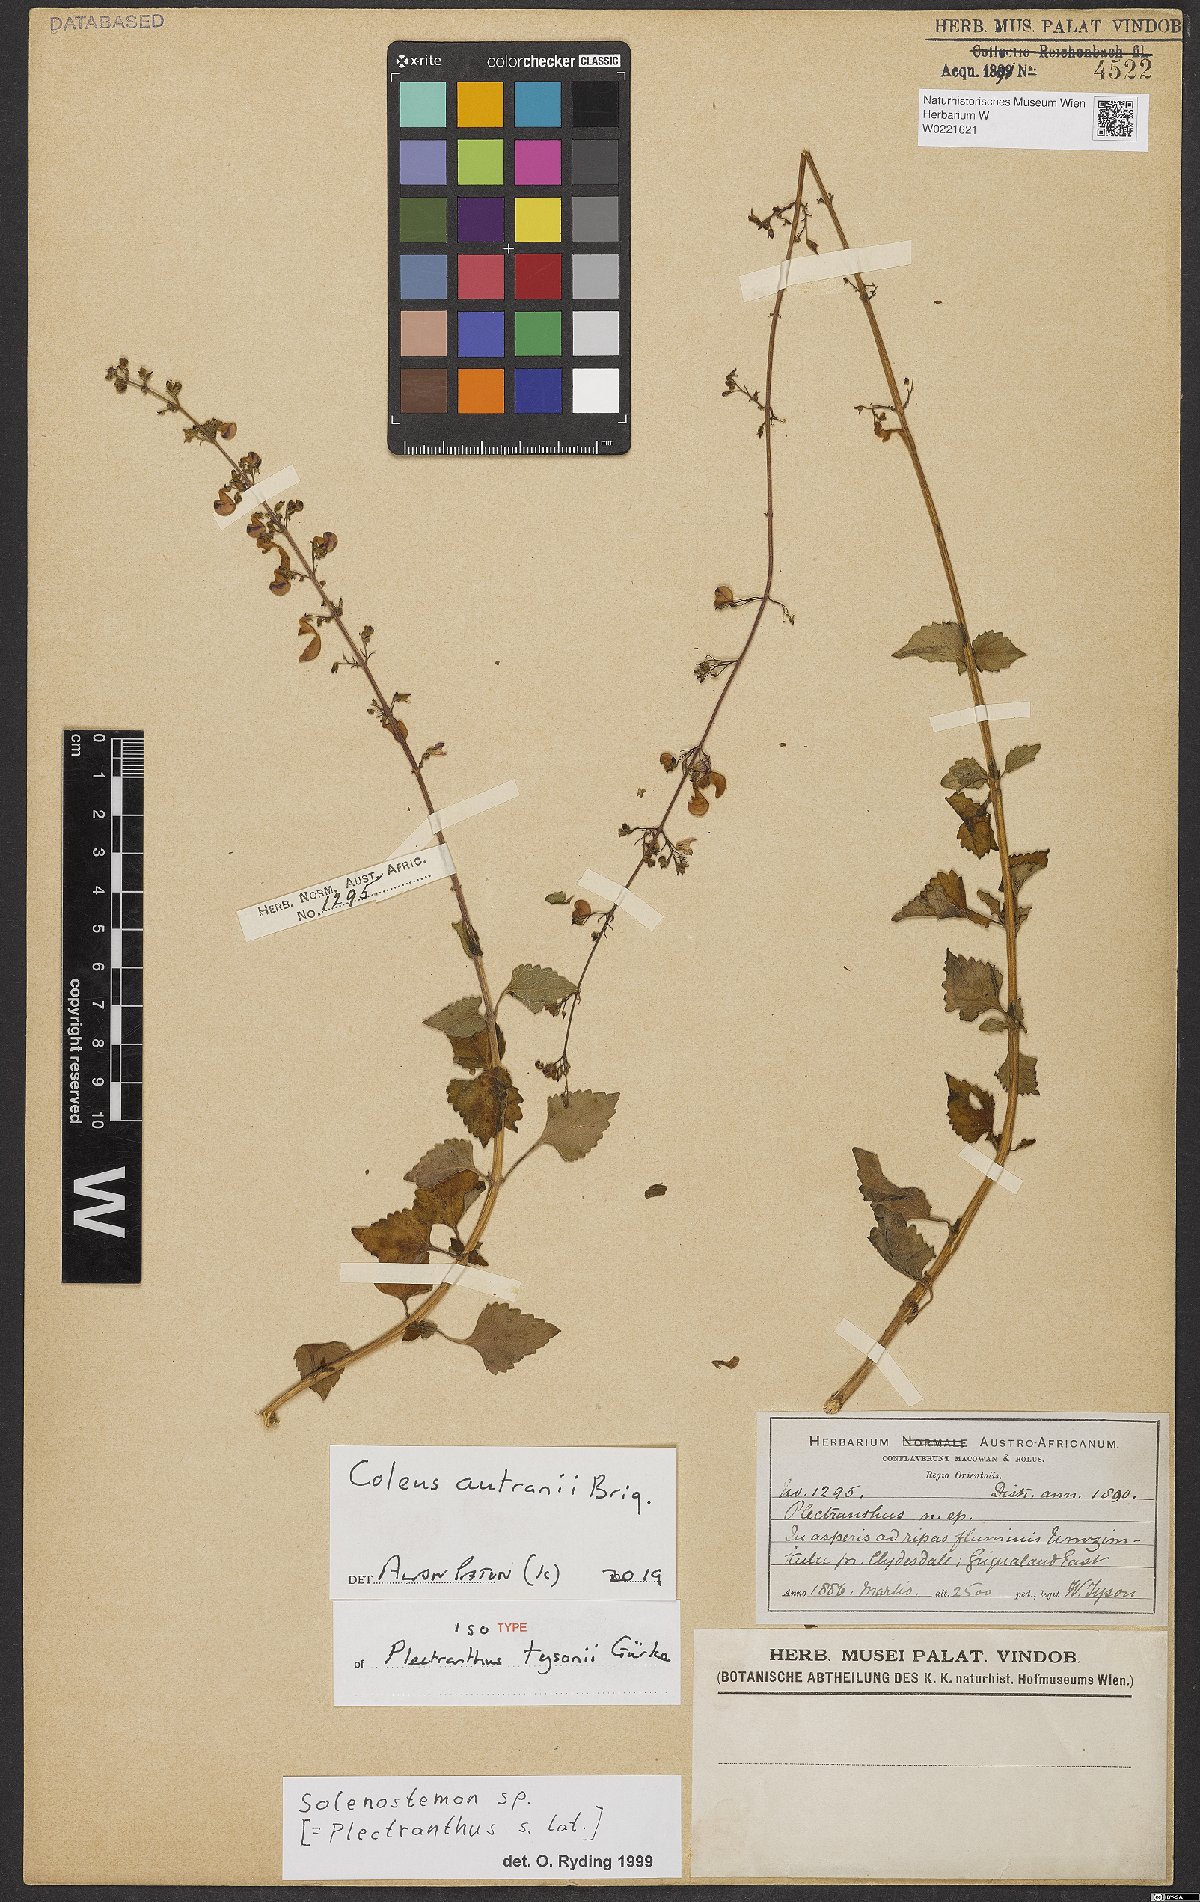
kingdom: Plantae
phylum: Tracheophyta
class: Magnoliopsida
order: Lamiales
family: Lamiaceae
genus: Coleus
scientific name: Coleus autranii
